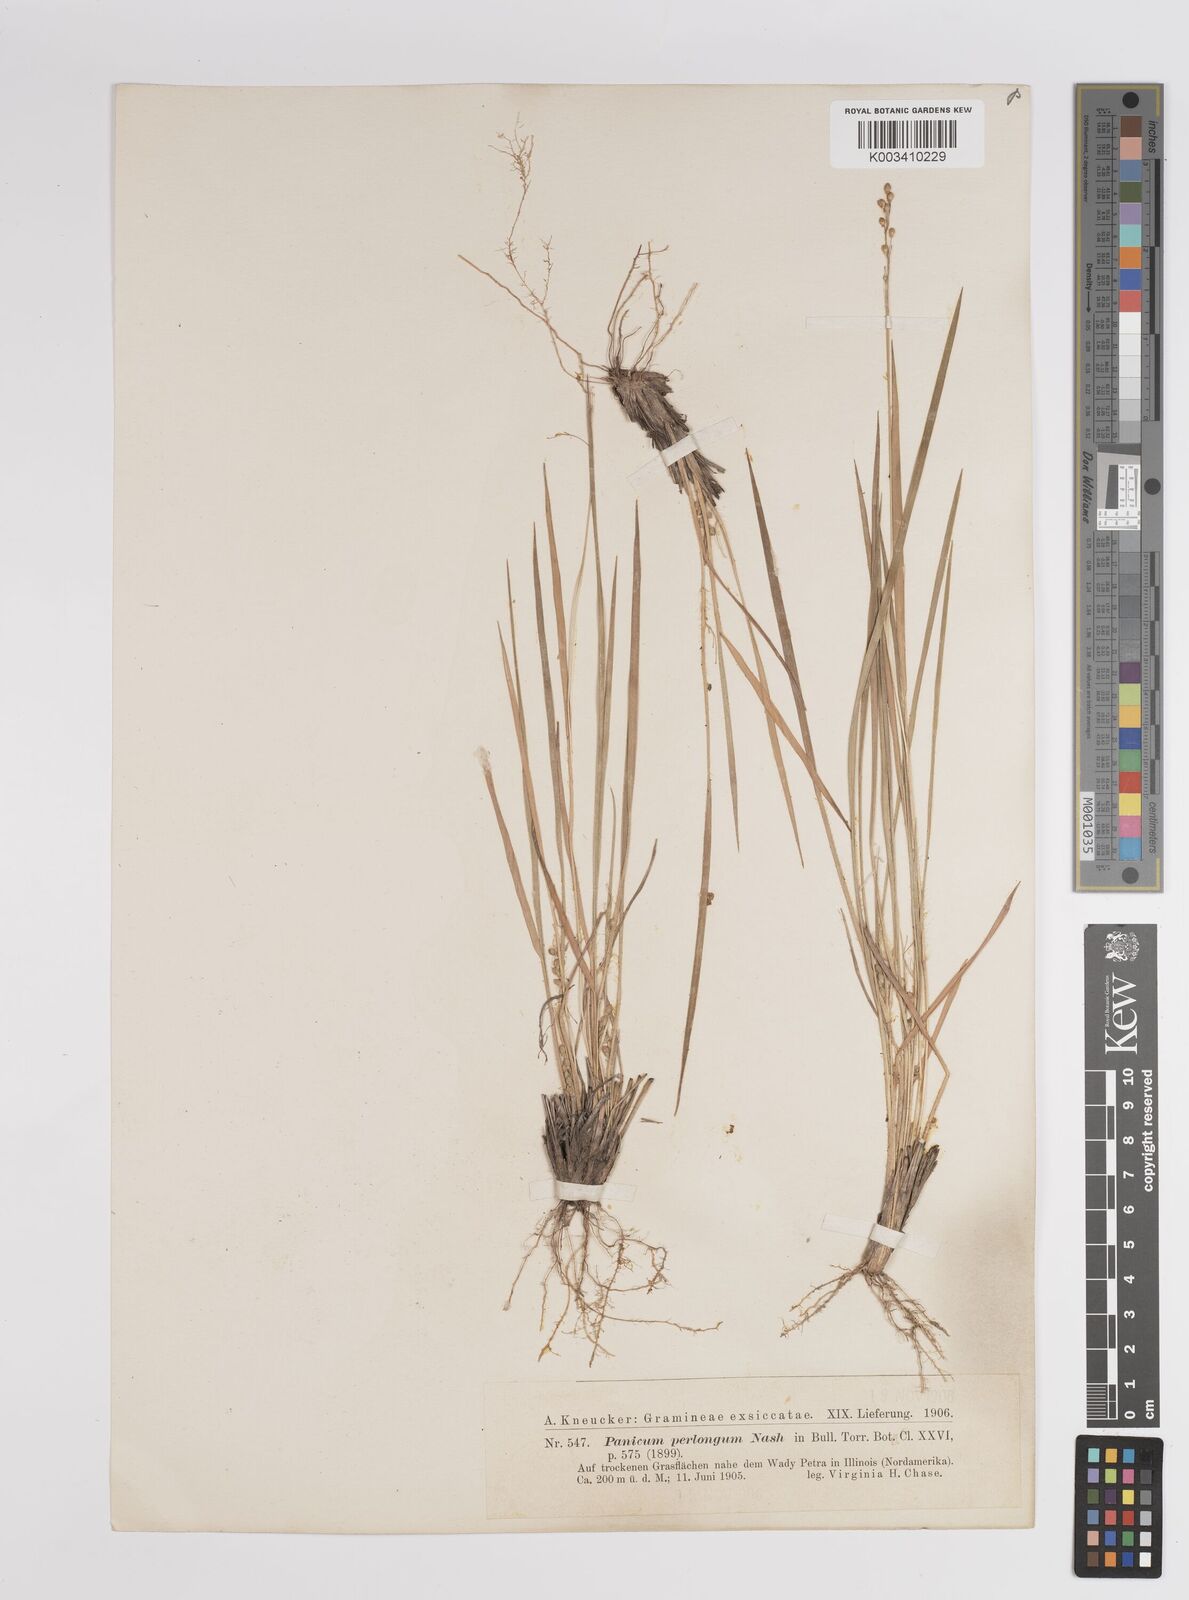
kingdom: Plantae
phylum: Tracheophyta
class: Liliopsida
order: Poales
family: Poaceae
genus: Dichanthelium
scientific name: Dichanthelium linearifolium
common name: Linear-leaved panicgrass
